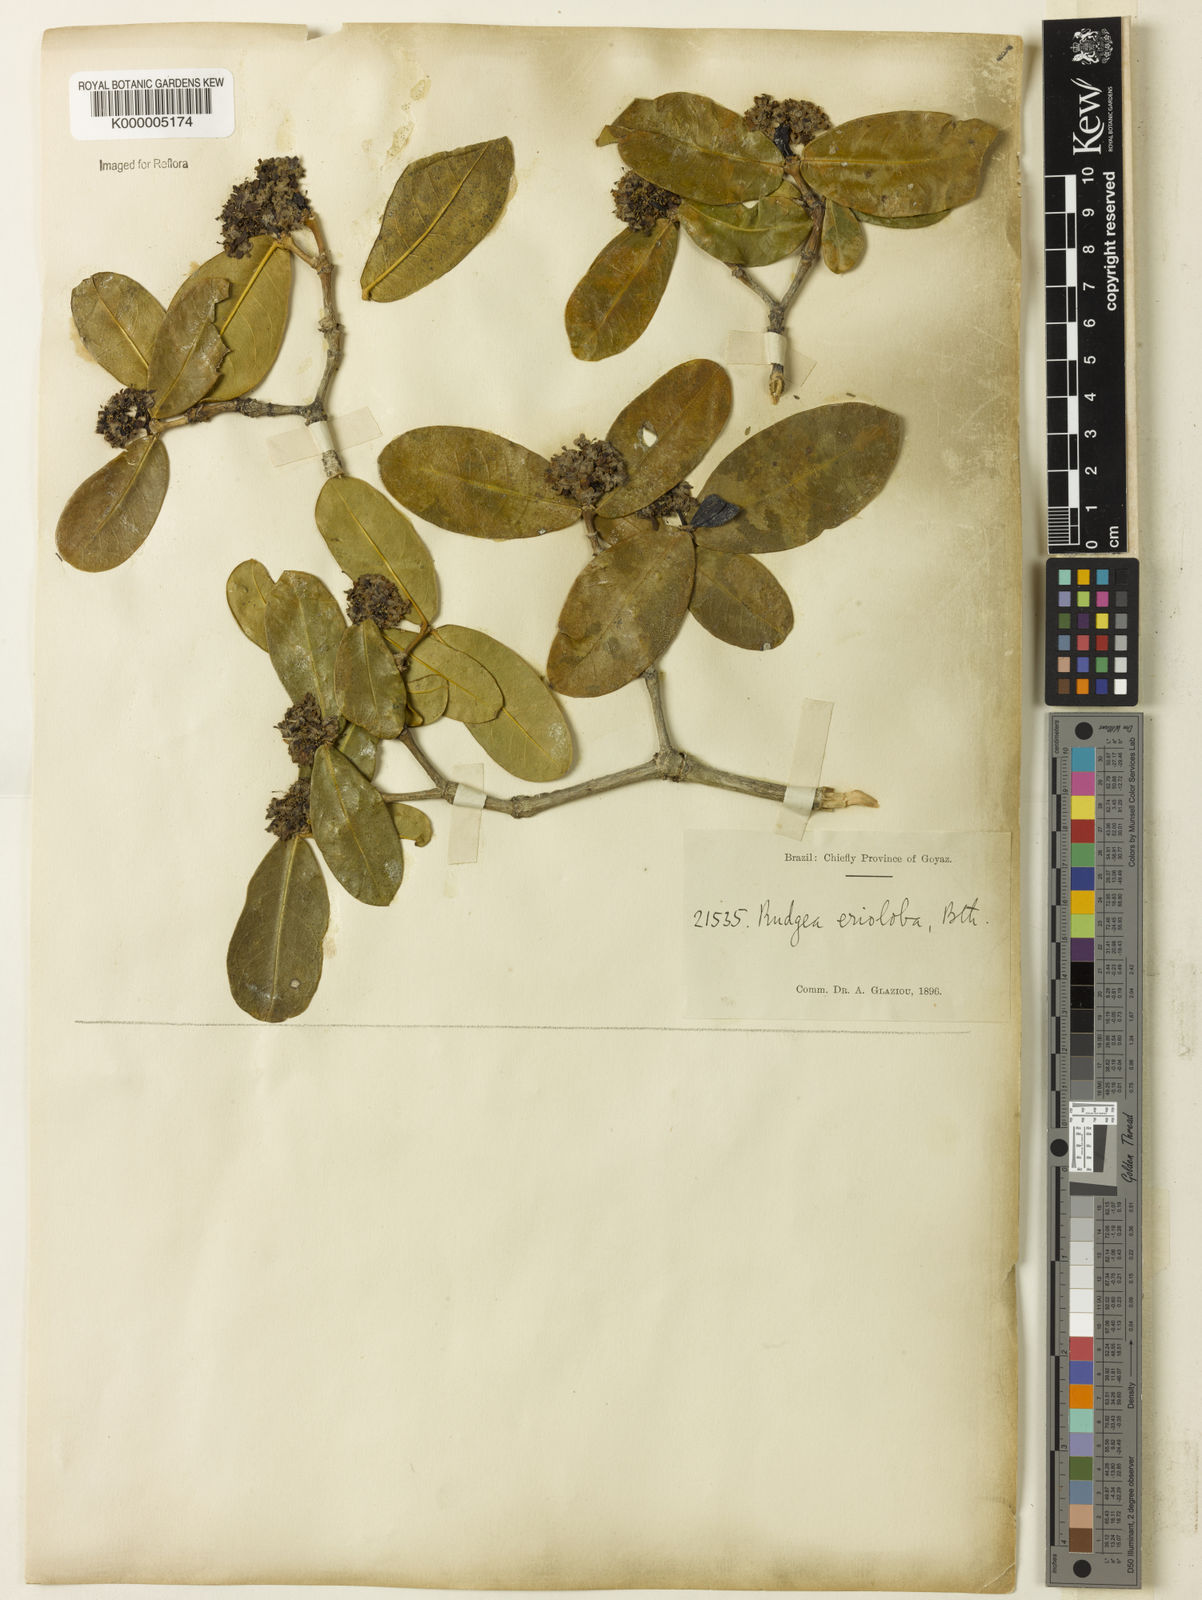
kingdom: Plantae
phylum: Tracheophyta
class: Magnoliopsida
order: Gentianales
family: Rubiaceae
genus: Rudgea
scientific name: Rudgea erioloba
